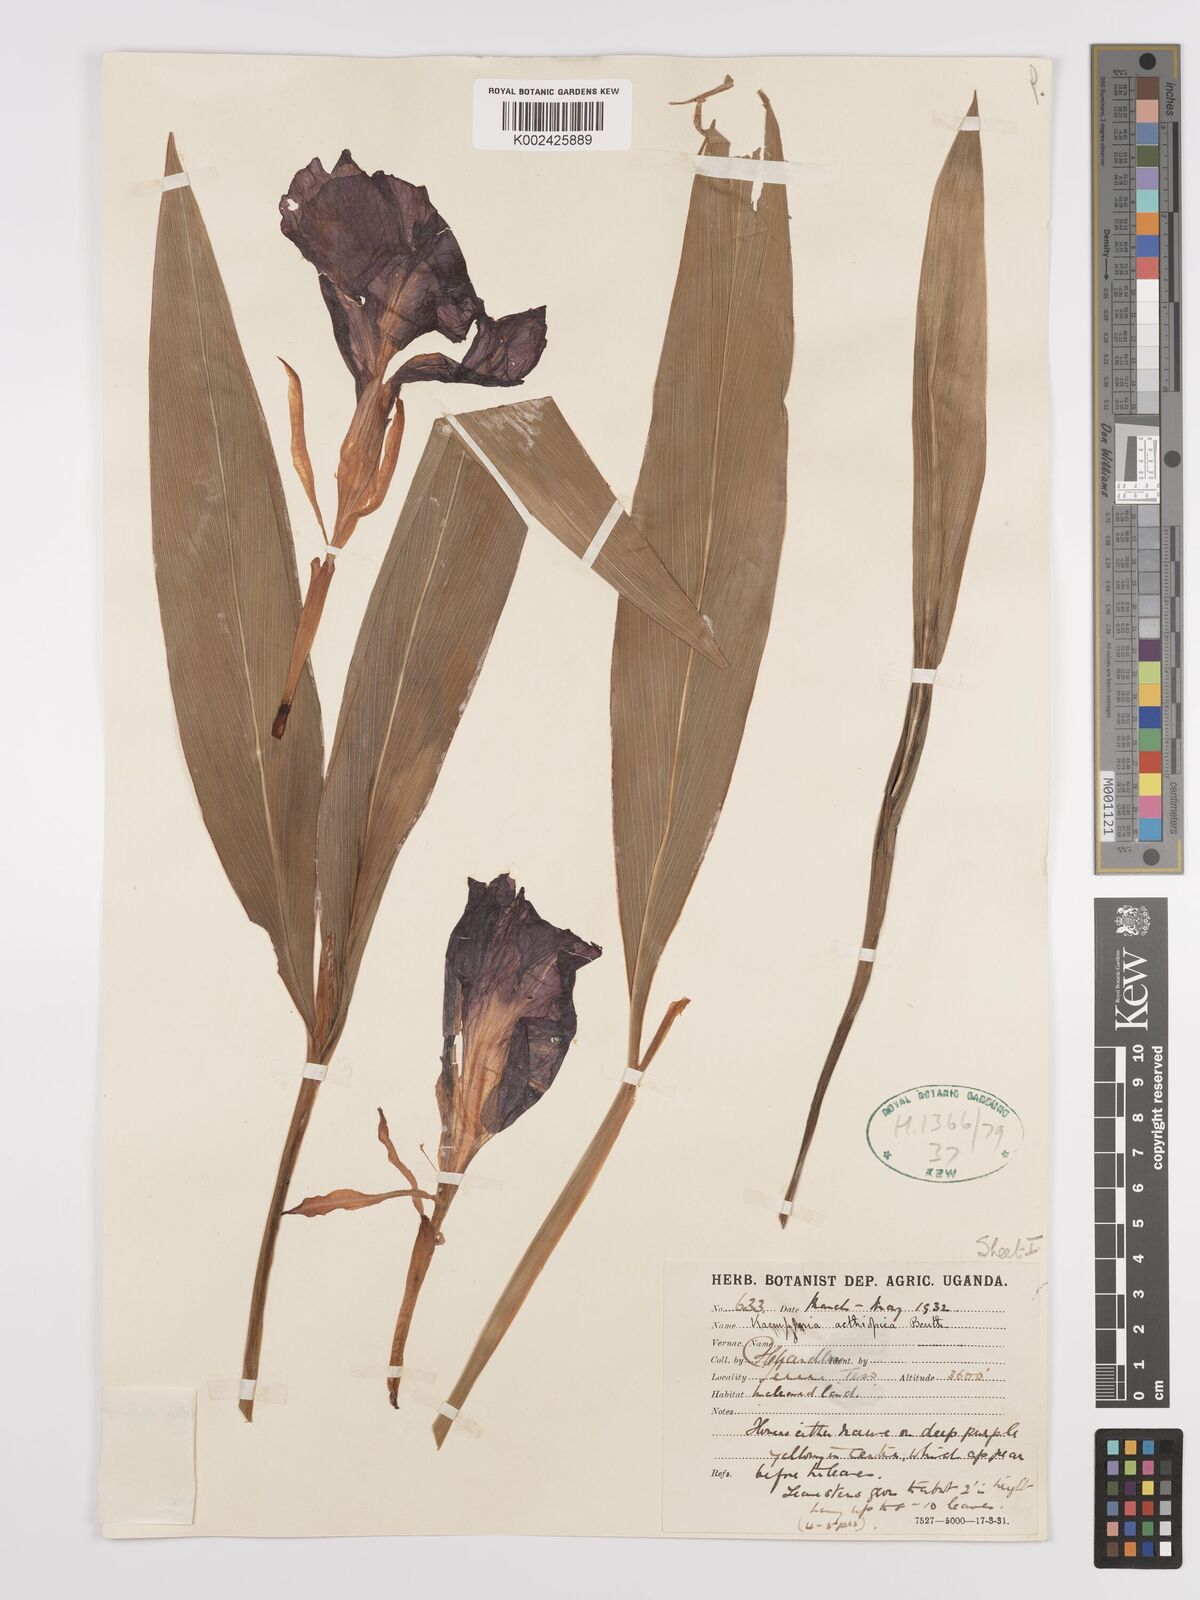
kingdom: Plantae
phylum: Tracheophyta
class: Liliopsida
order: Zingiberales
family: Zingiberaceae
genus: Siphonochilus
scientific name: Siphonochilus aethiopicus
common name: African-ginger
